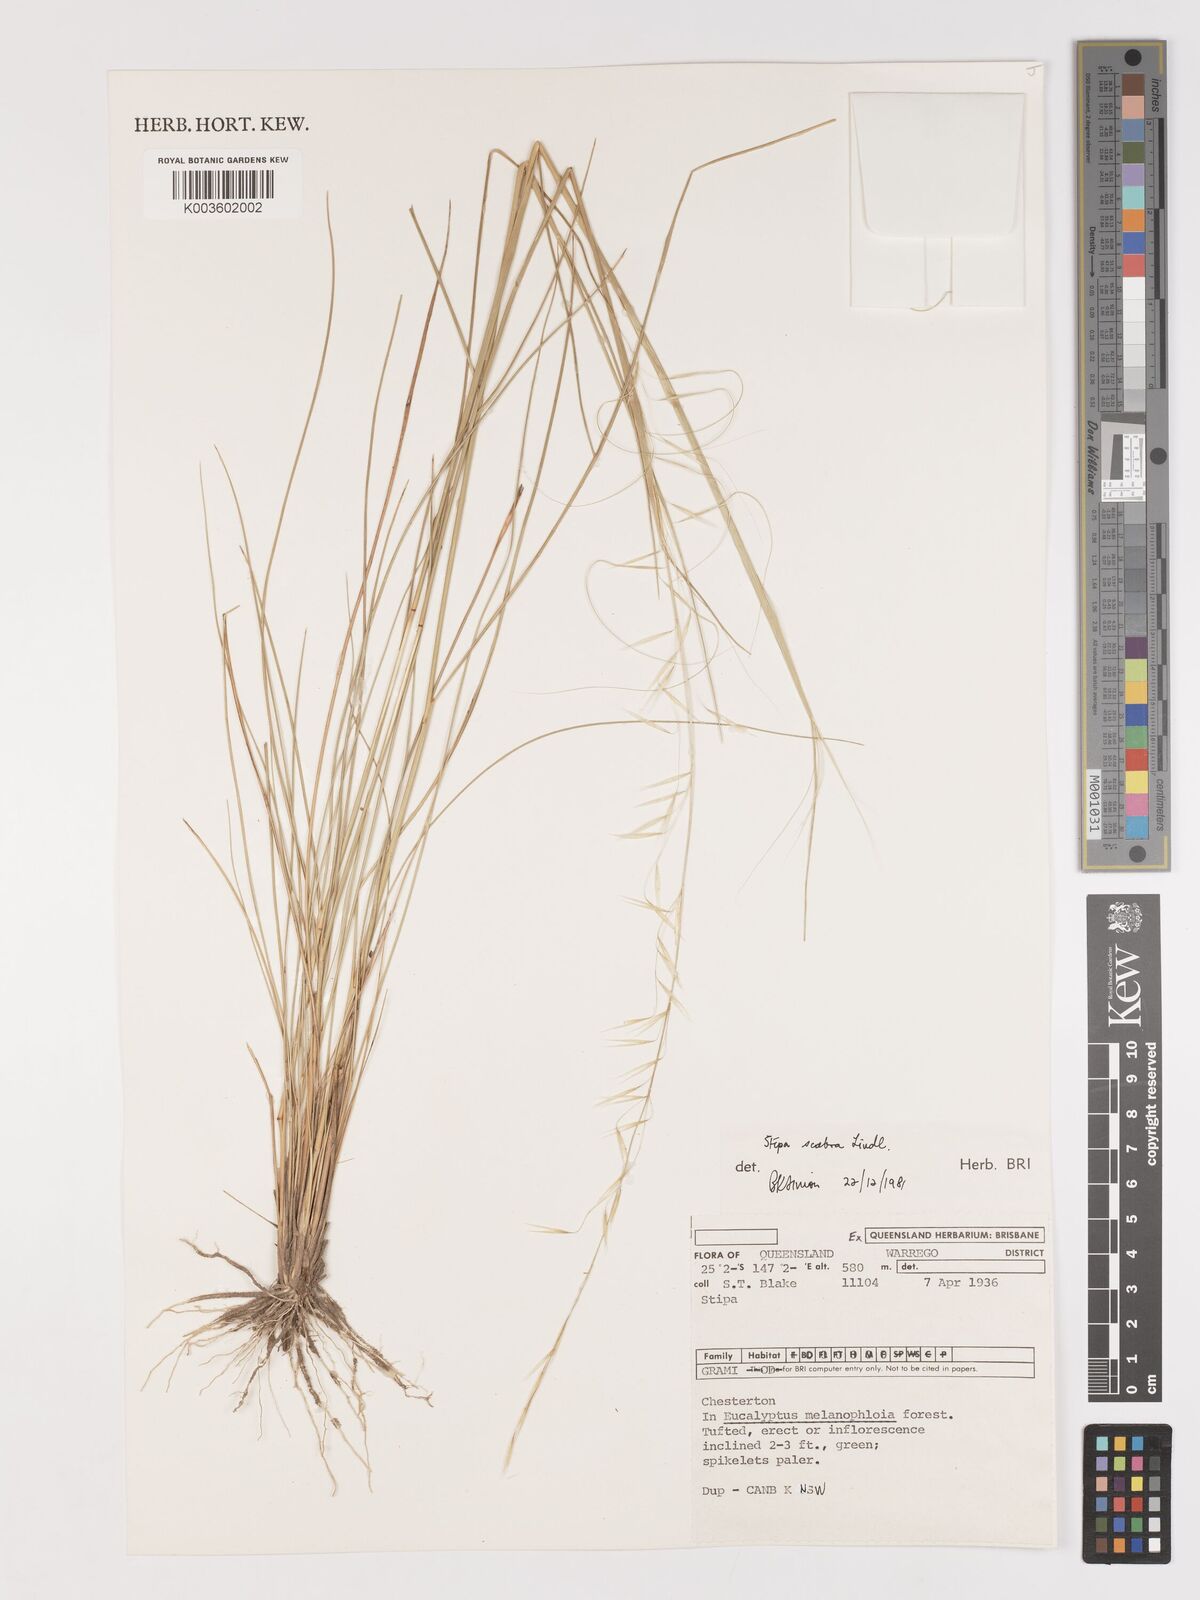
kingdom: Plantae
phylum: Tracheophyta
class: Liliopsida
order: Poales
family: Poaceae
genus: Austrostipa
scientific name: Austrostipa scabra
